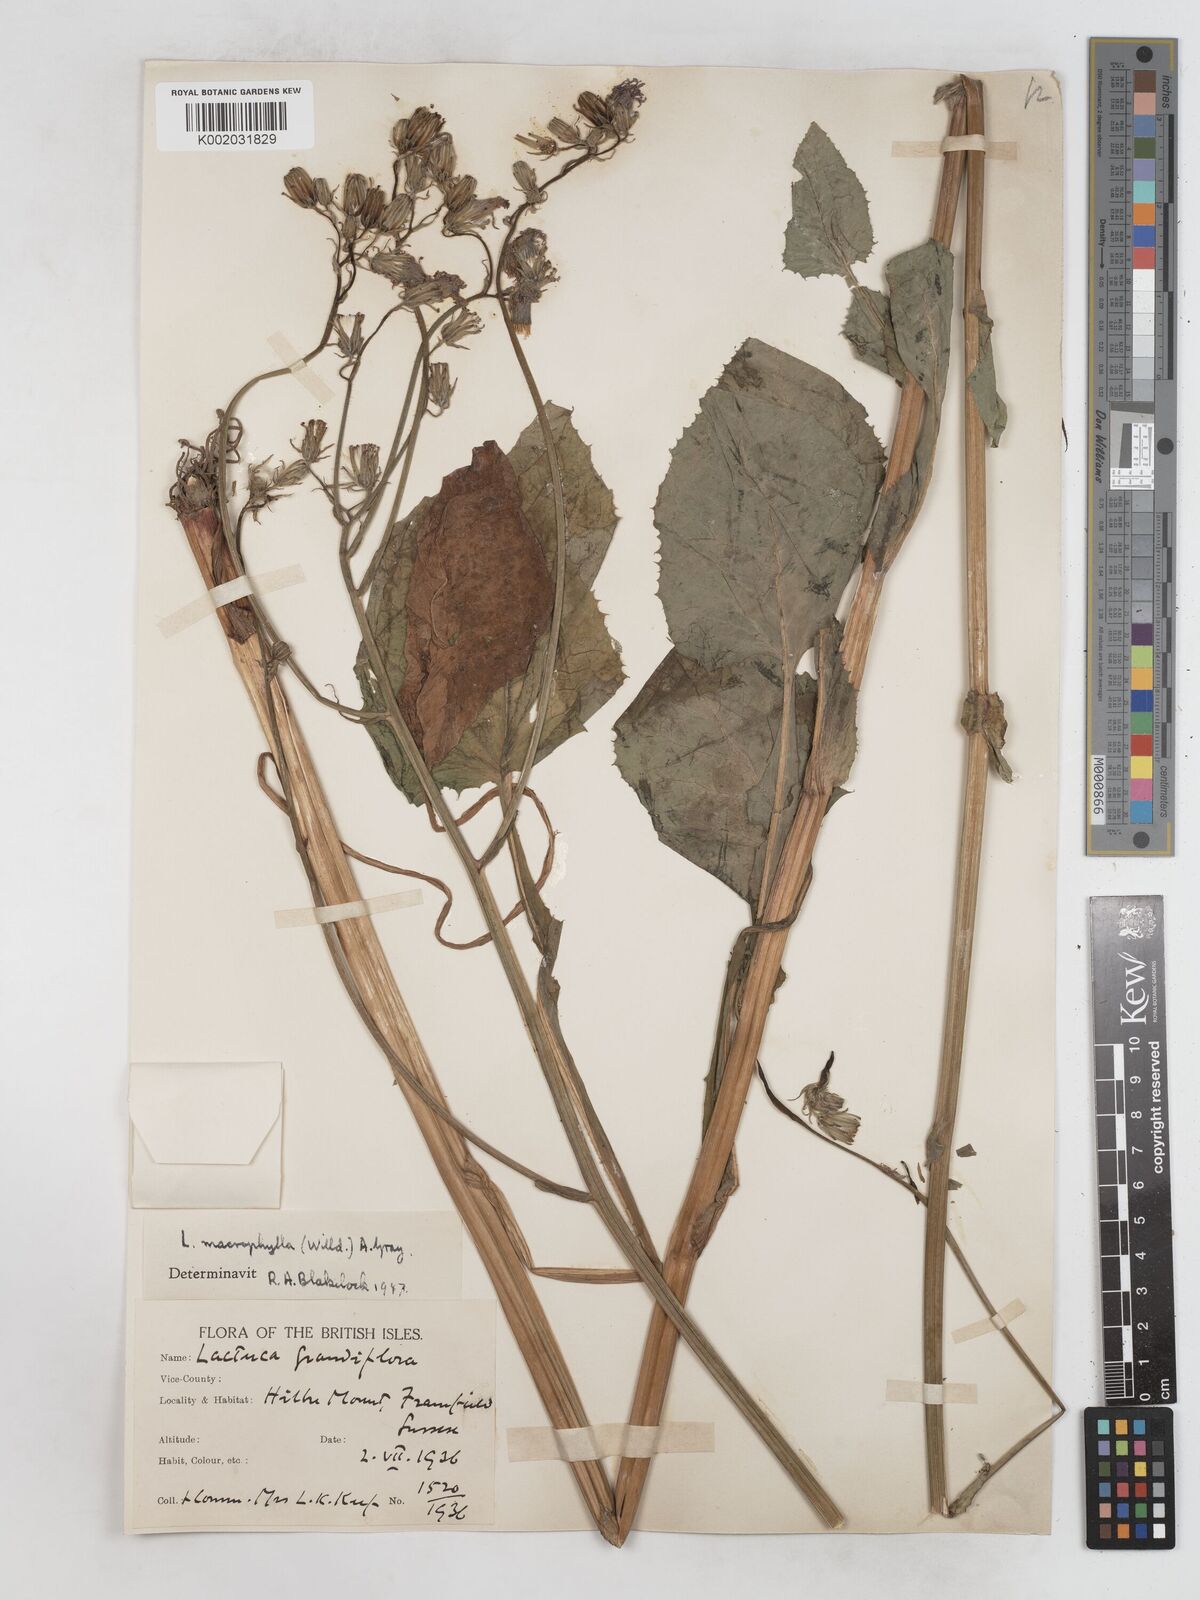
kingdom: Plantae
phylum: Tracheophyta
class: Magnoliopsida
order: Asterales
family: Asteraceae
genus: Lactuca
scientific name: Lactuca macrophylla
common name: Common blue-sow-thistle
